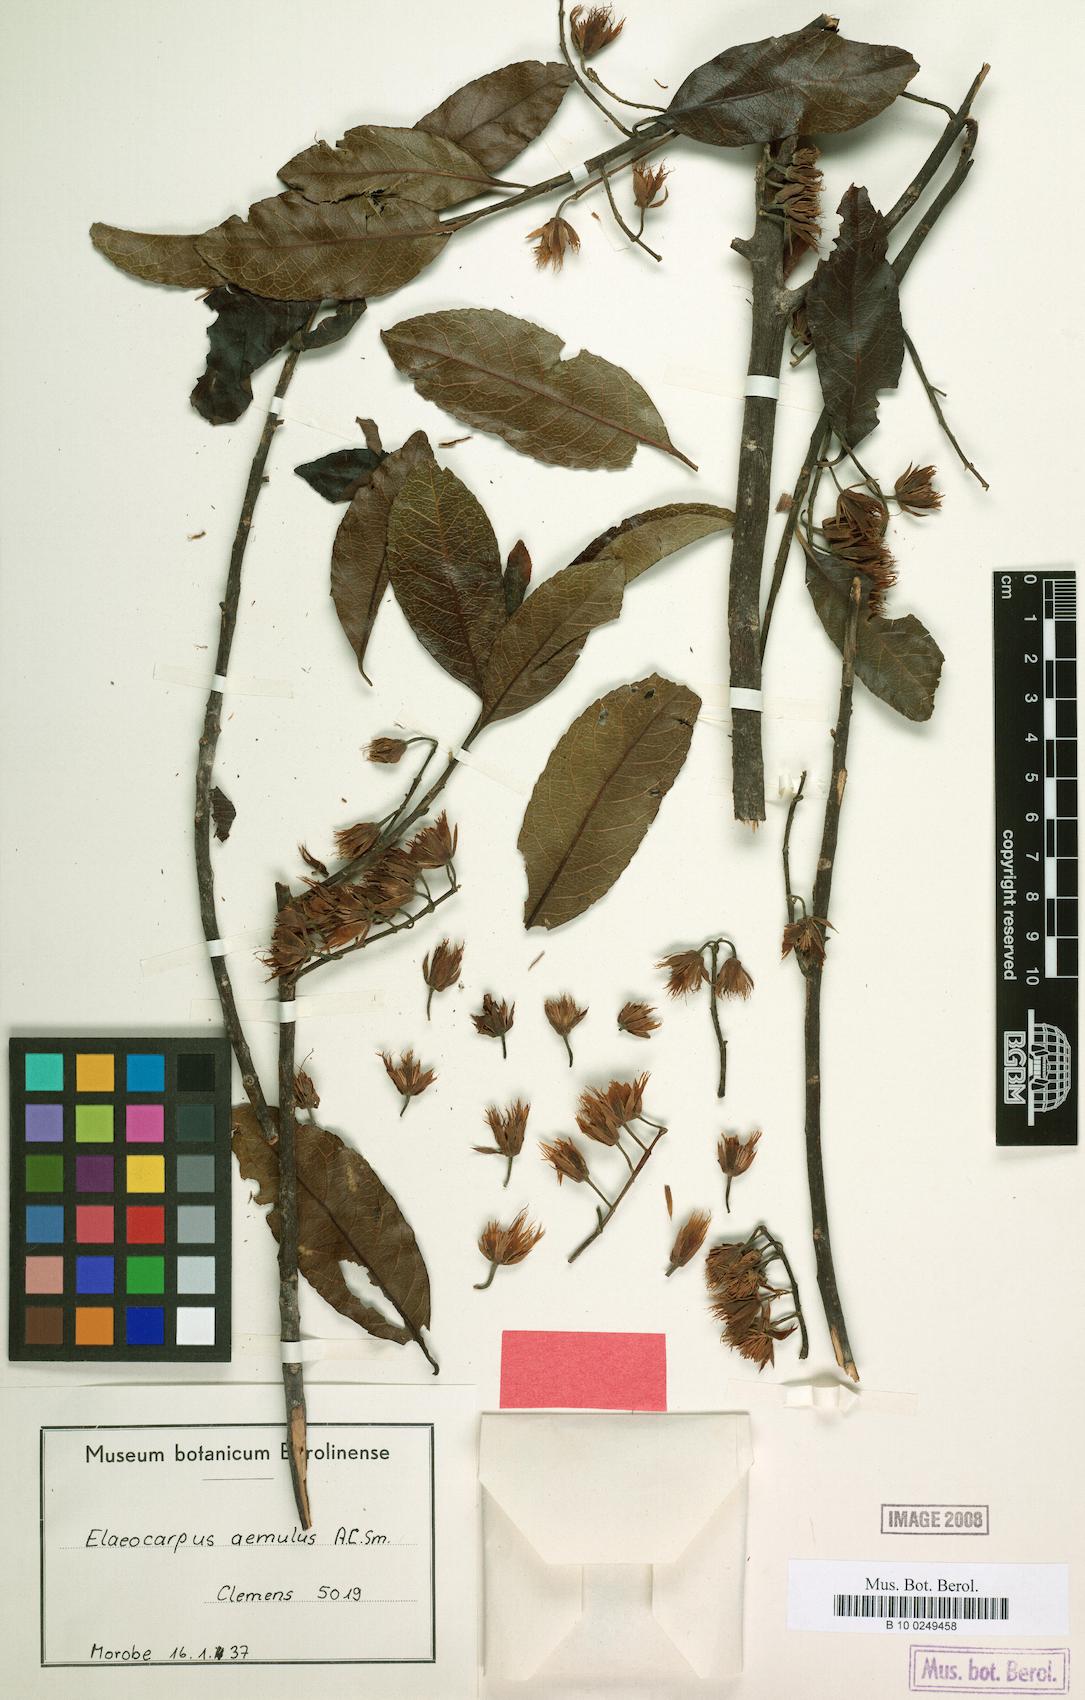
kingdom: Plantae
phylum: Tracheophyta
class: Magnoliopsida
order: Oxalidales
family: Elaeocarpaceae
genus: Elaeocarpus
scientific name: Elaeocarpus ptilanthus
